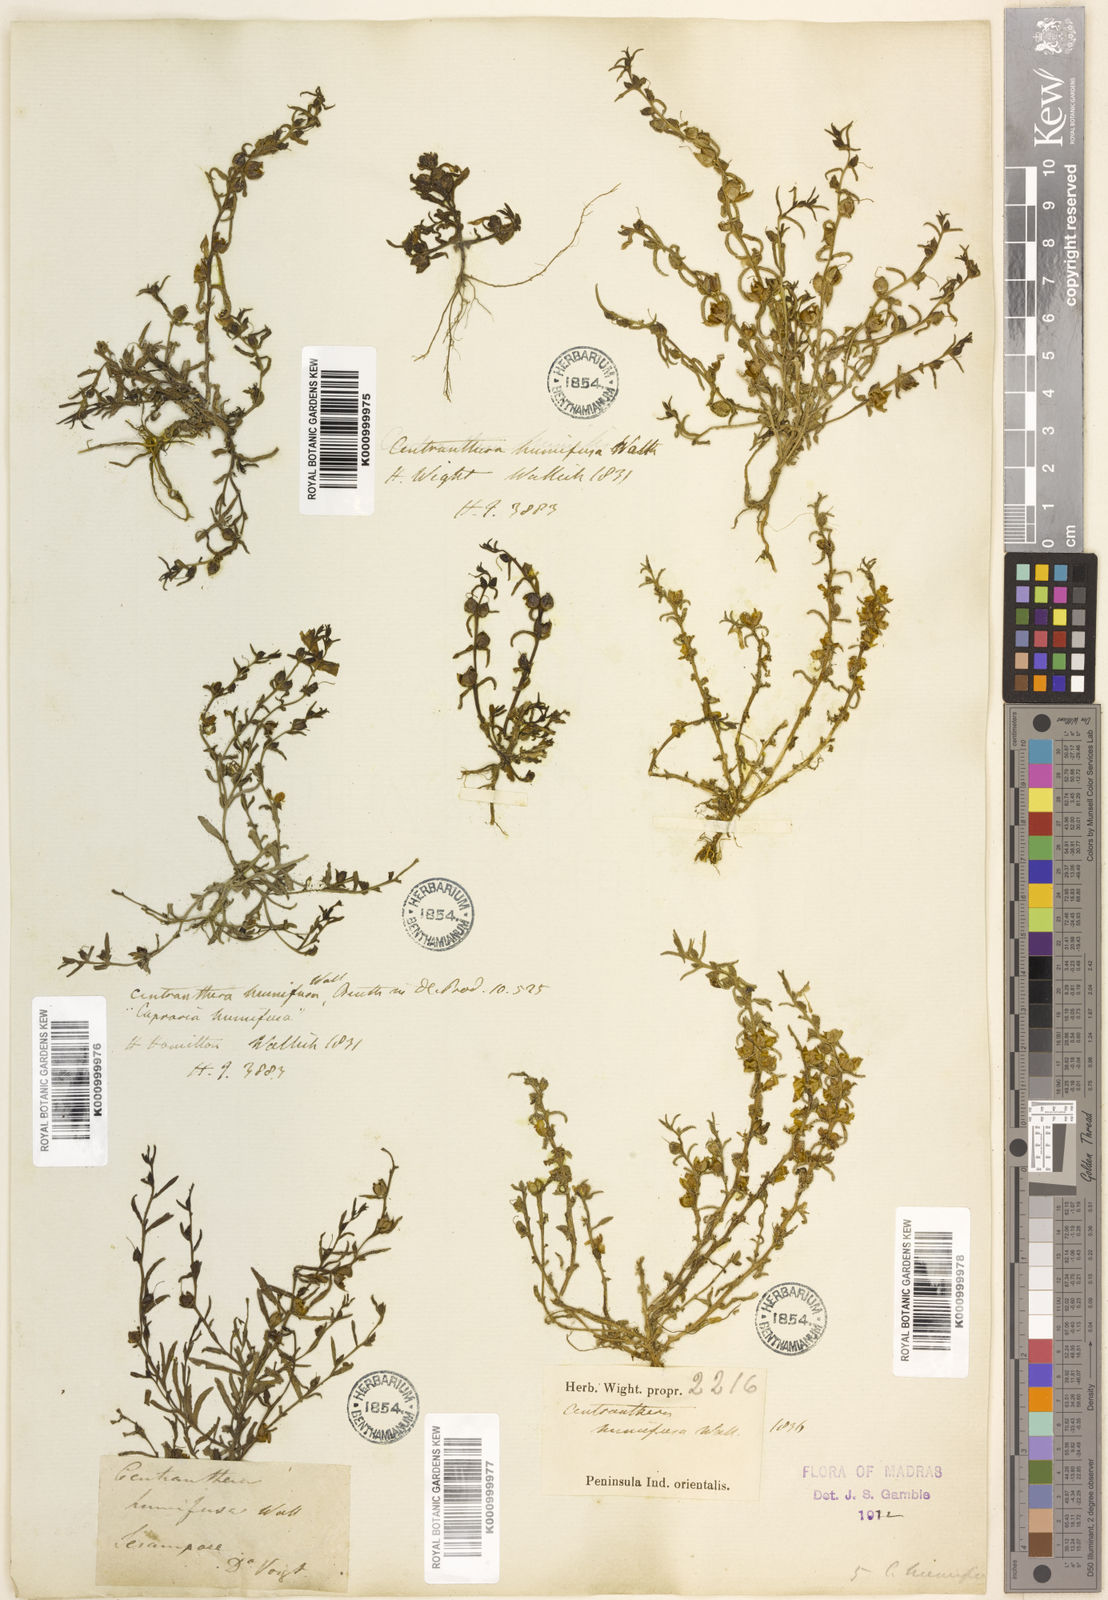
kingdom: Plantae
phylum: Tracheophyta
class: Magnoliopsida
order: Lamiales
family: Orobanchaceae
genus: Centranthera
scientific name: Centranthera
